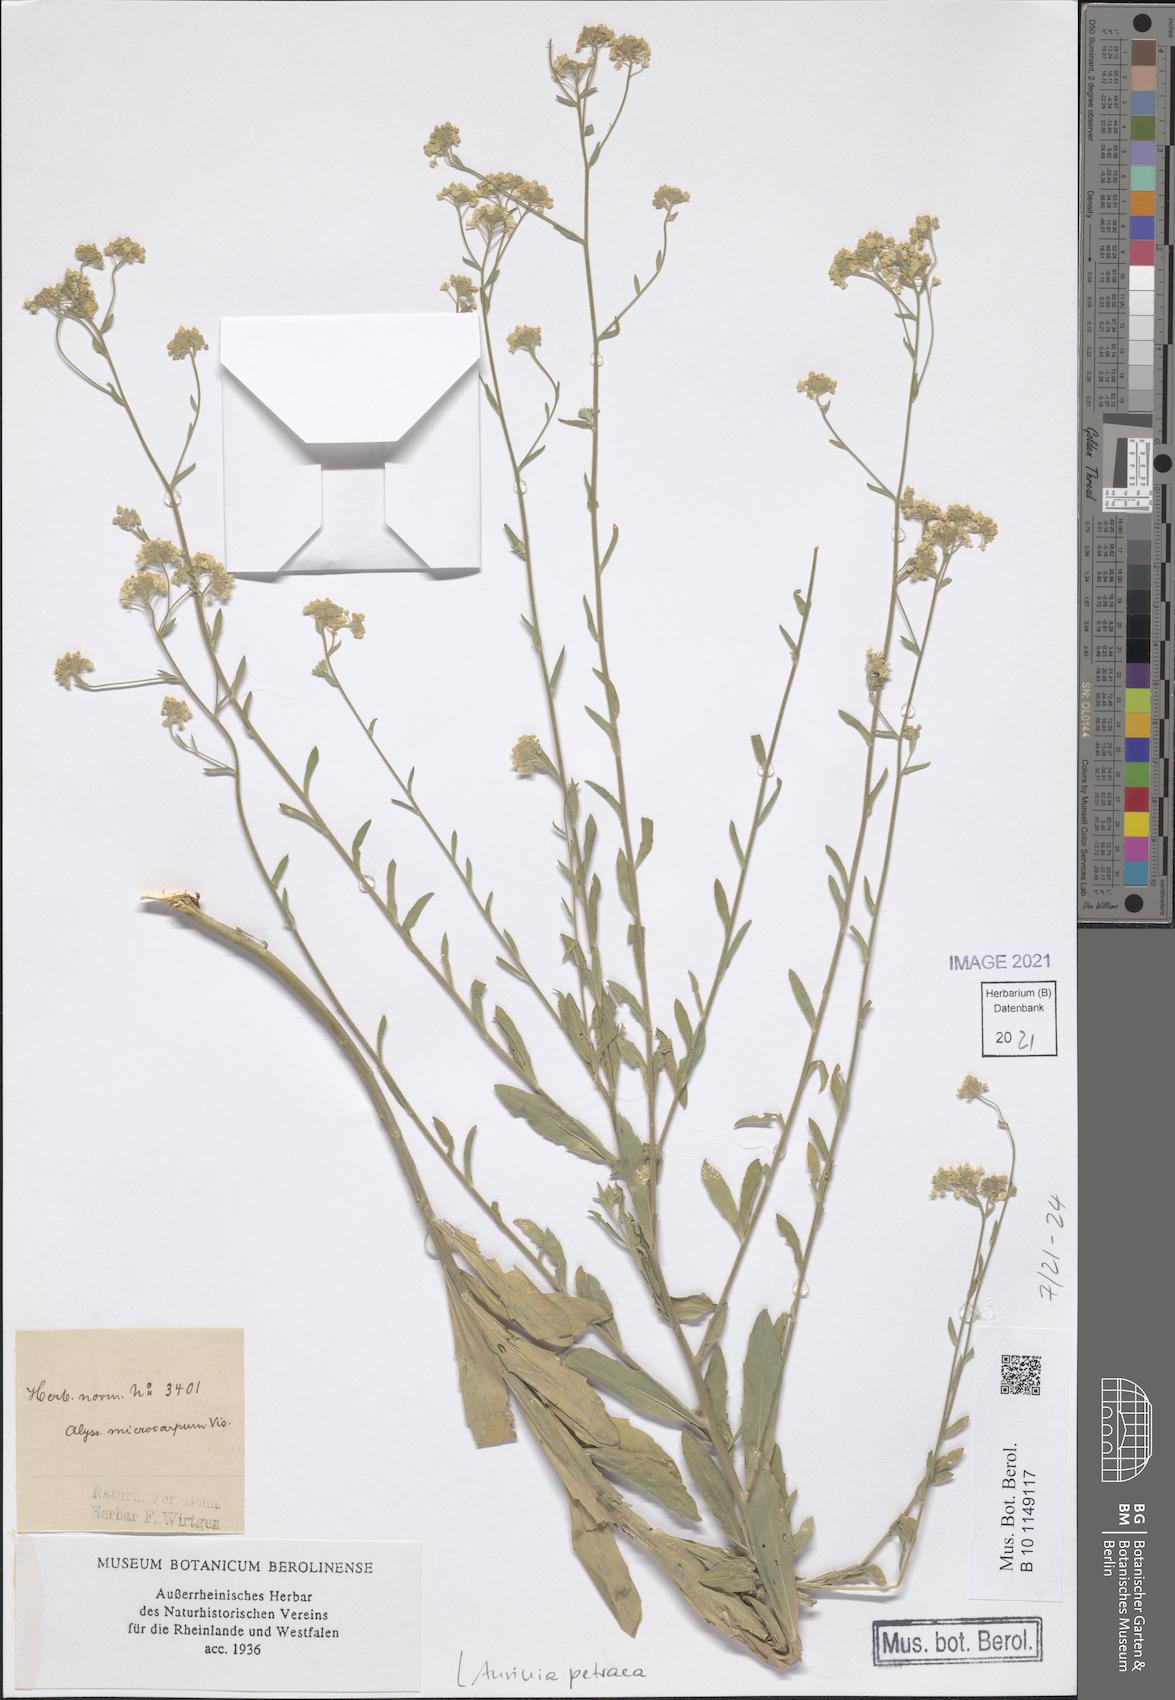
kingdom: Plantae
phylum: Tracheophyta
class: Magnoliopsida
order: Brassicales
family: Brassicaceae
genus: Aurinia
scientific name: Aurinia petraea
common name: Goldentuft
